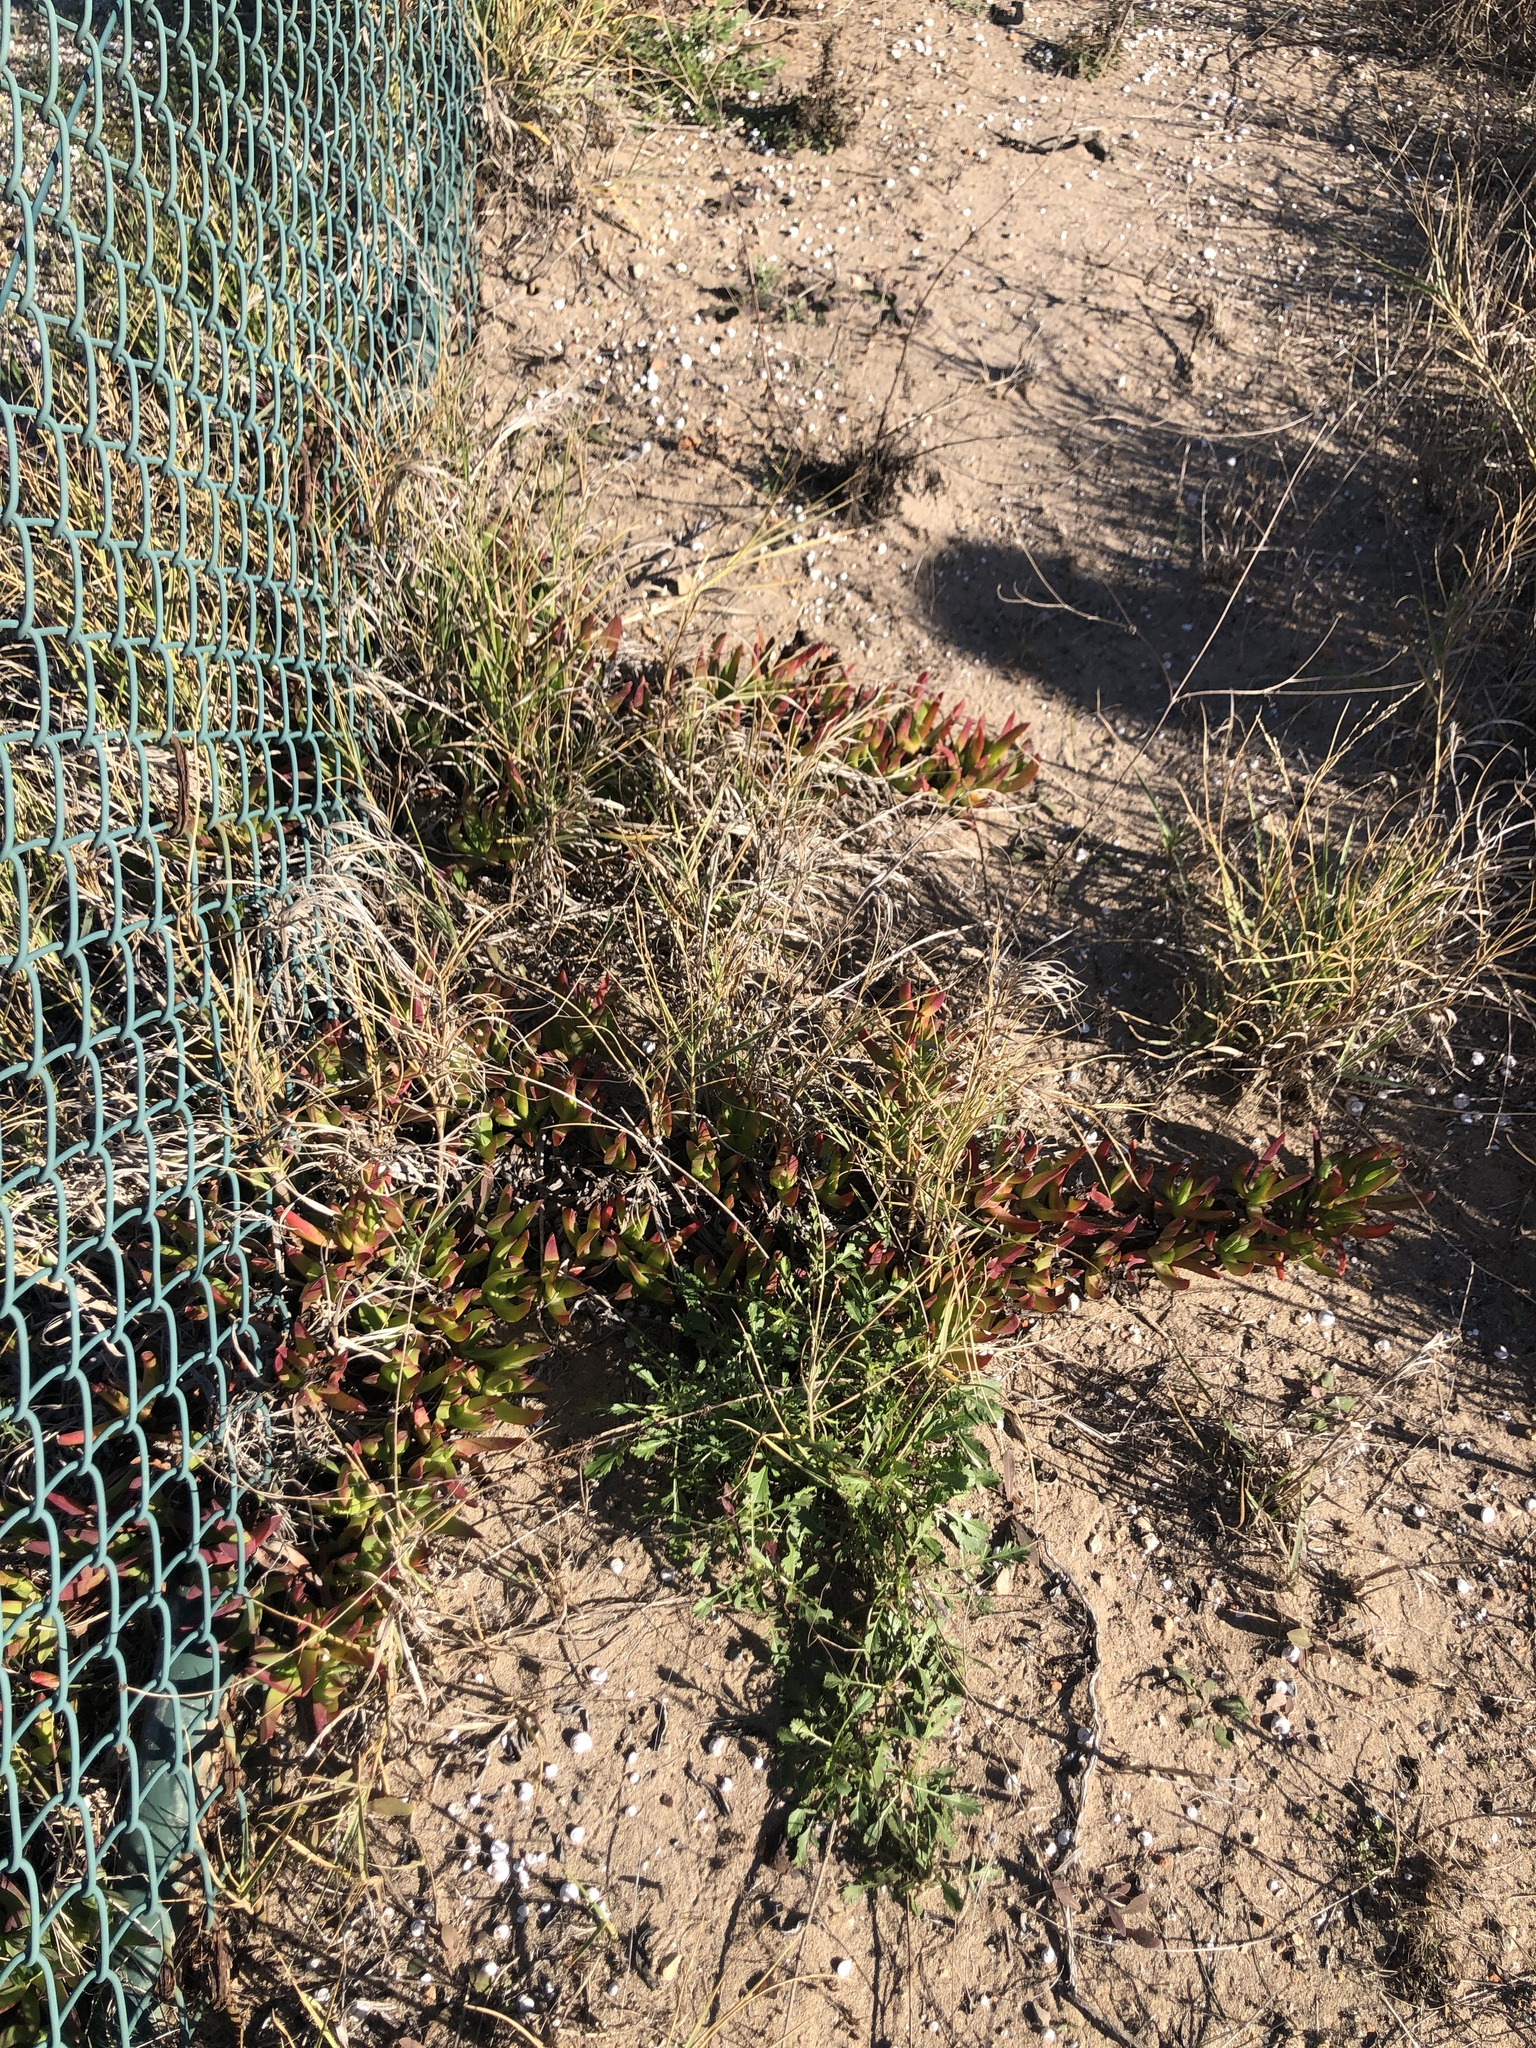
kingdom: Plantae
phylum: Tracheophyta
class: Magnoliopsida
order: Caryophyllales
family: Aizoaceae
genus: Carpobrotus
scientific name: Carpobrotus edulis
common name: Hottentot-fig
